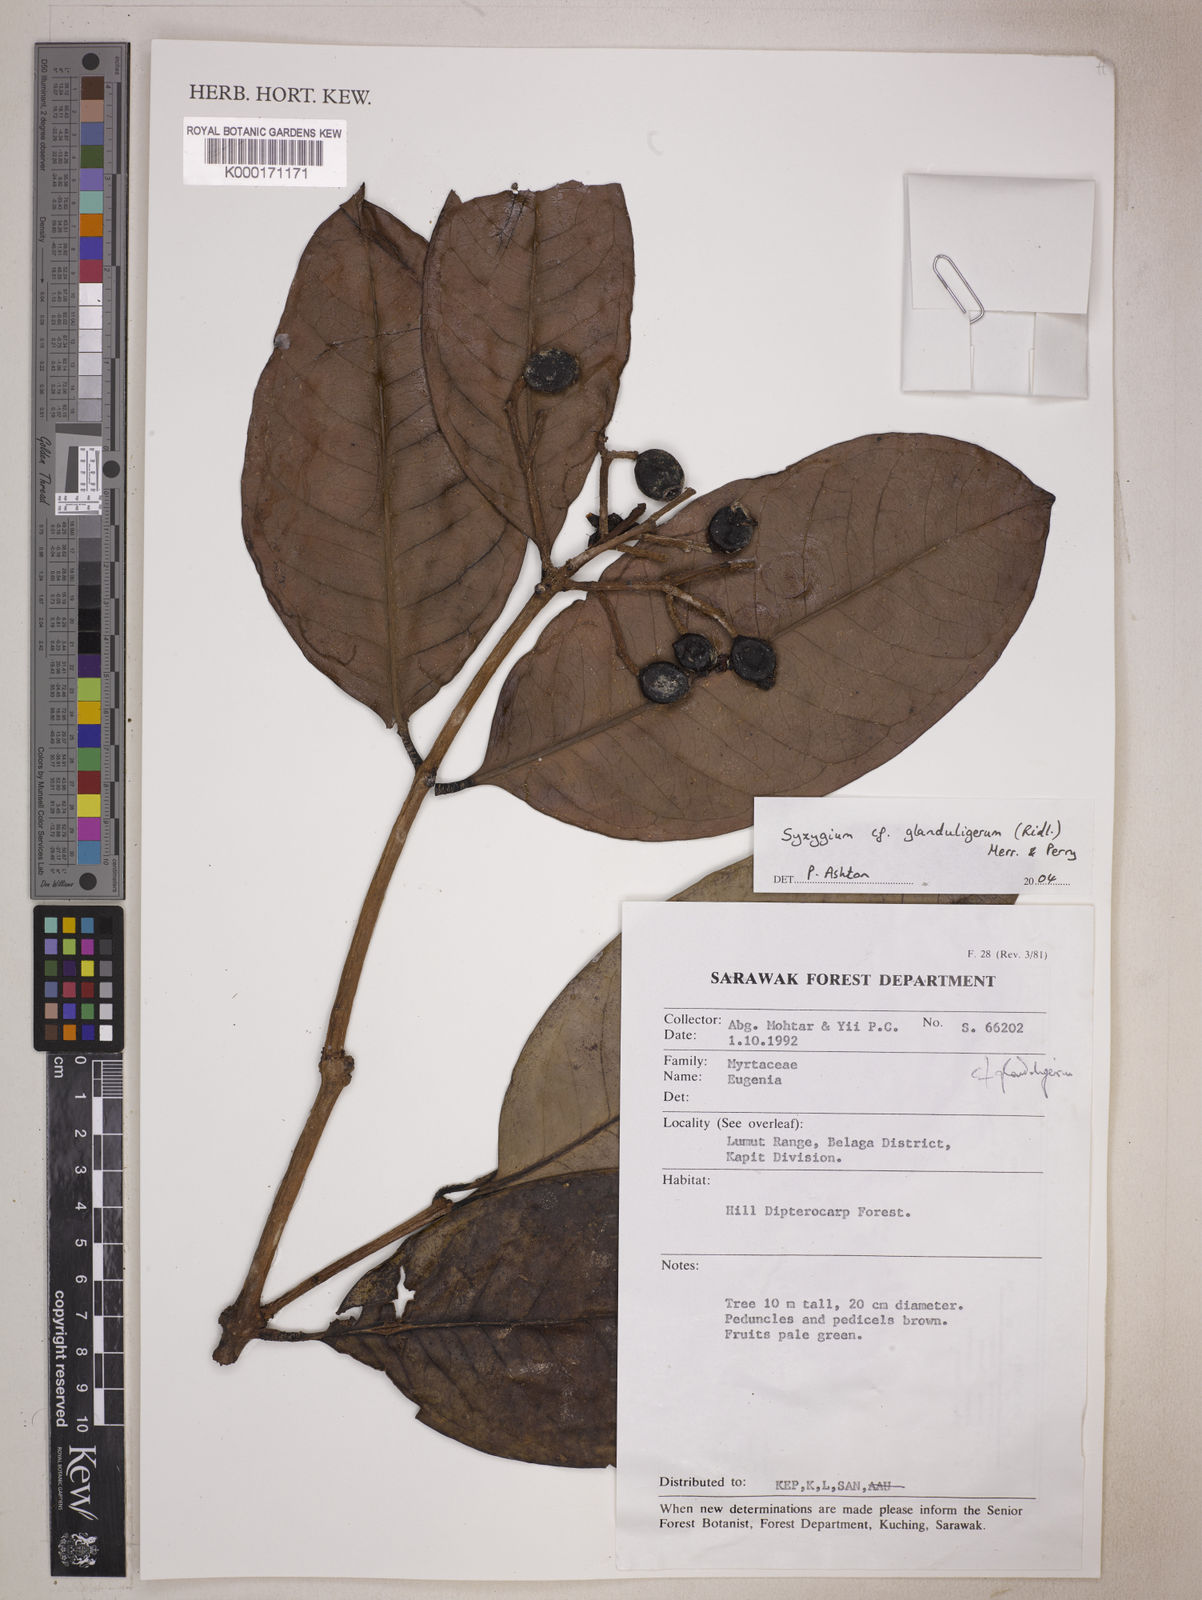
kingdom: Plantae
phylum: Tracheophyta
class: Magnoliopsida
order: Myrtales
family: Myrtaceae
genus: Syzygium
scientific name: Syzygium glanduligerum
